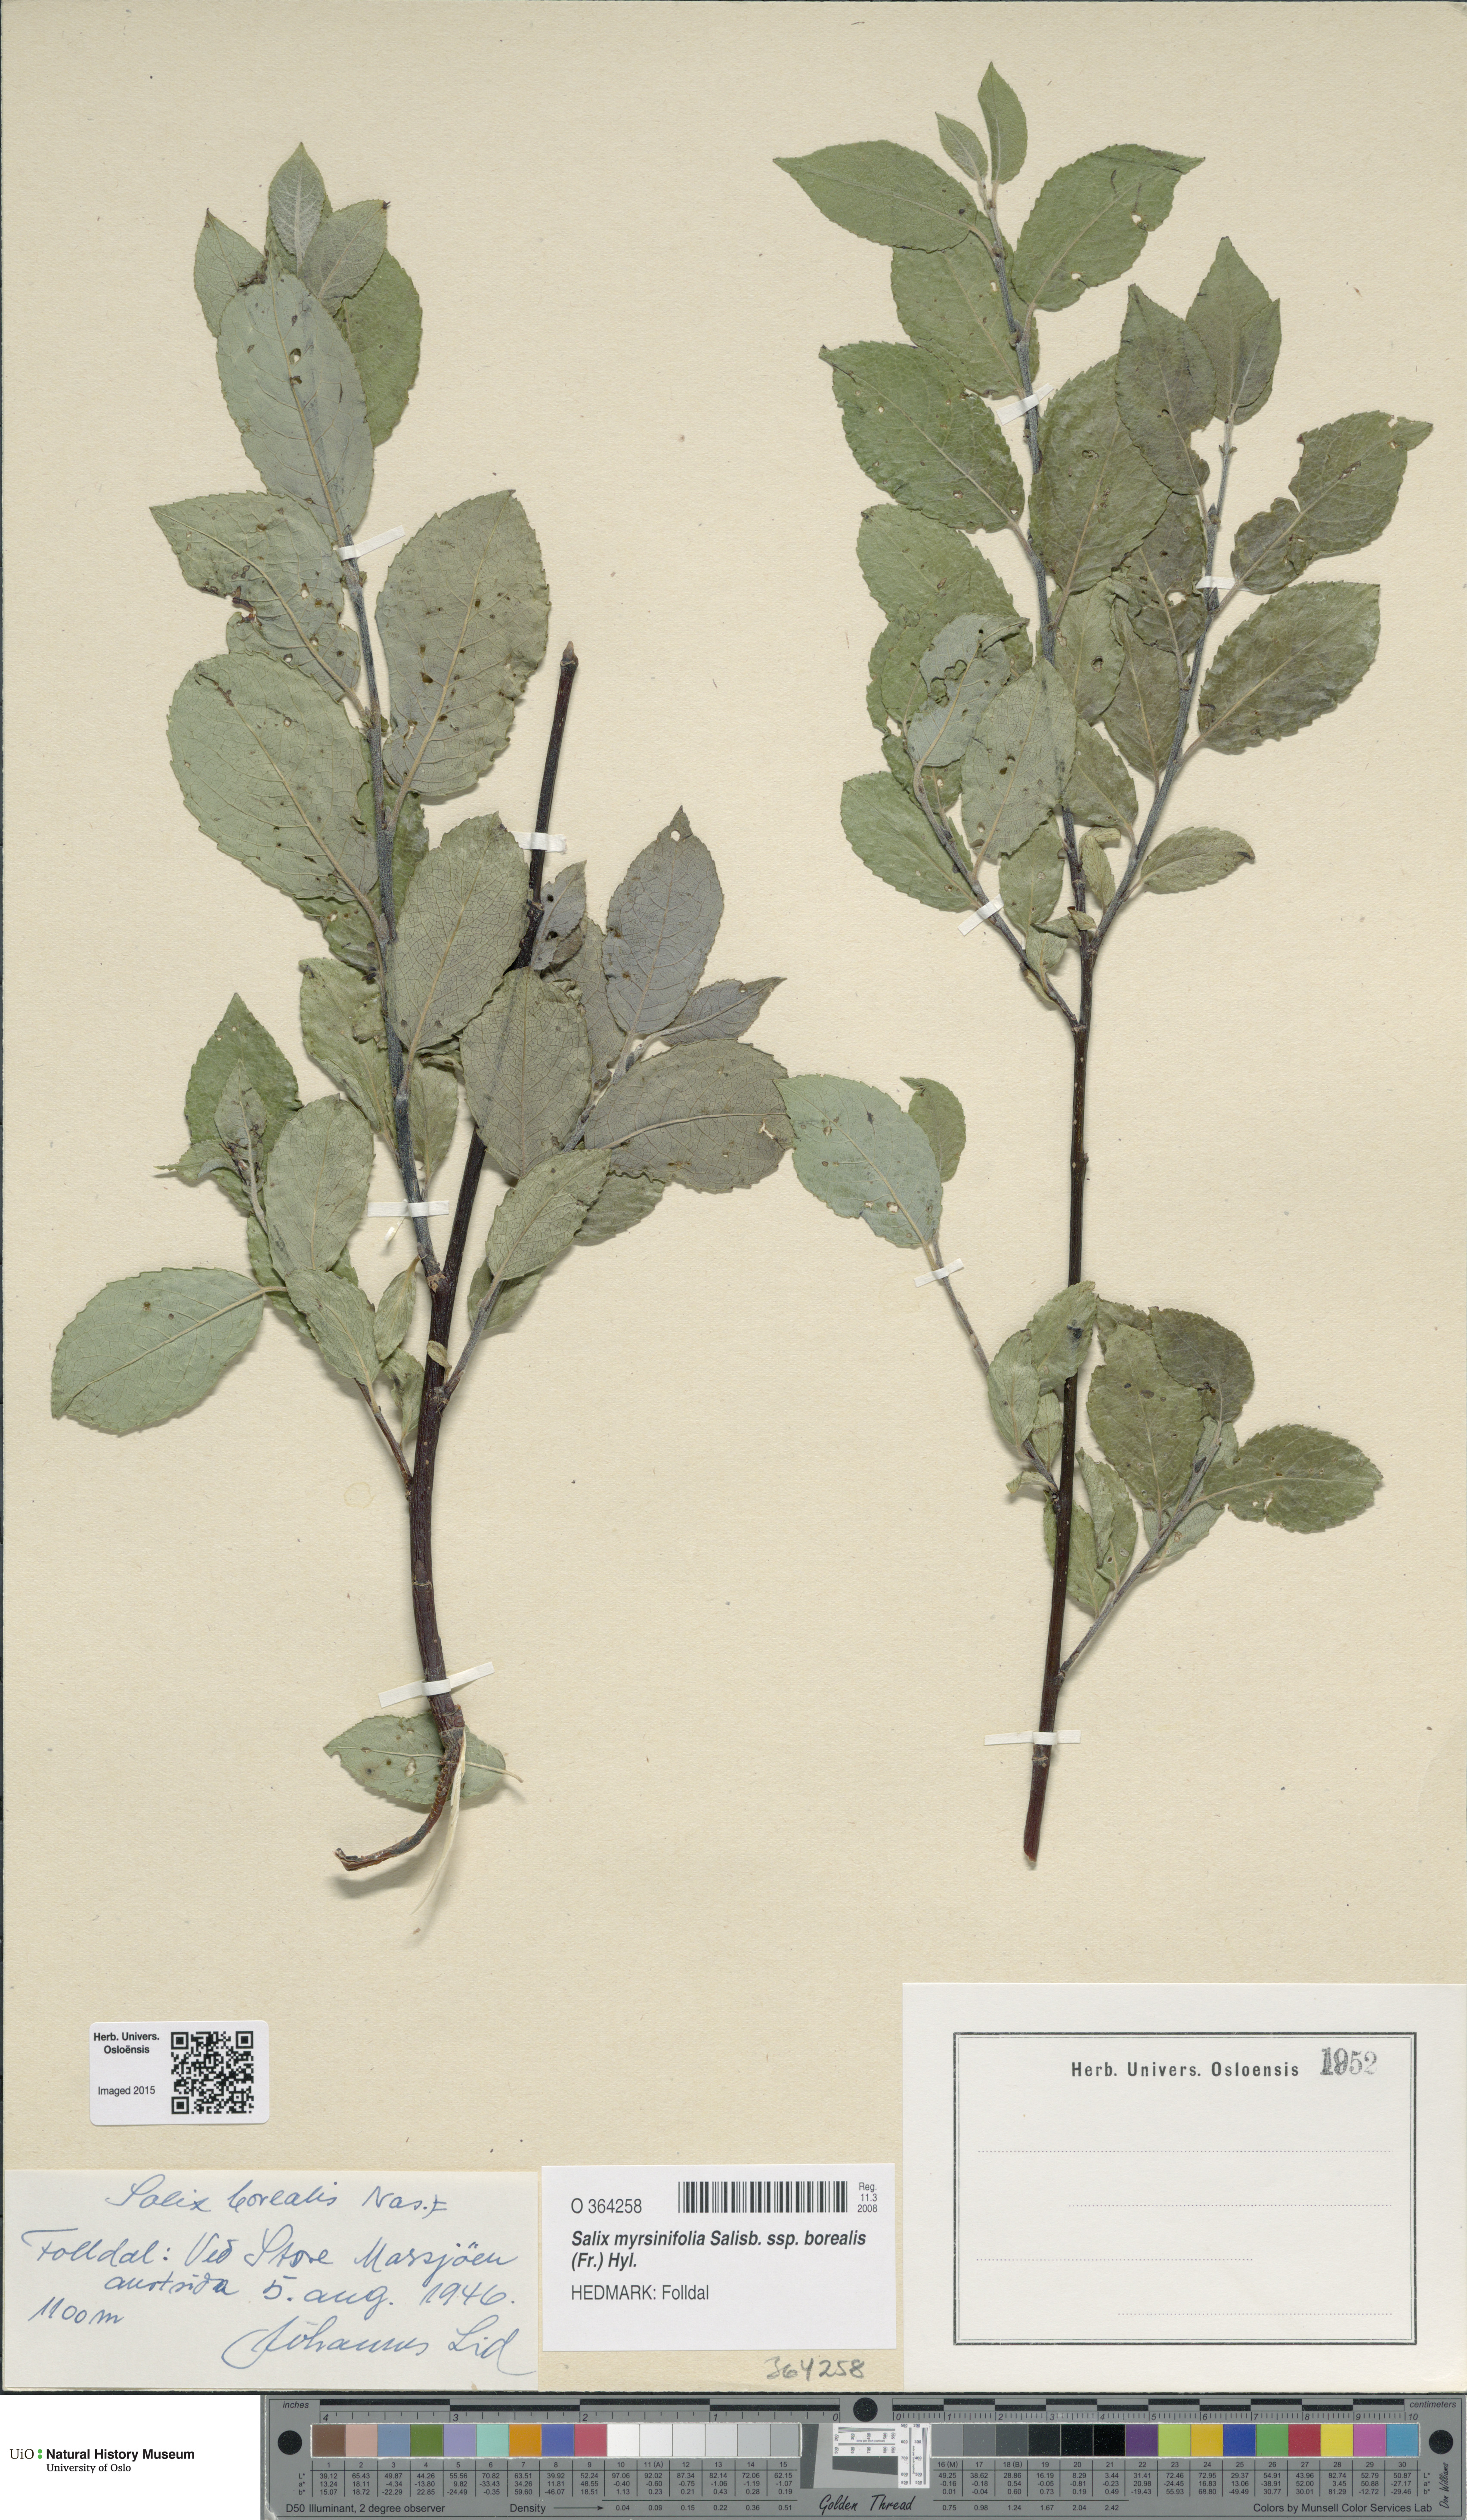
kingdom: Plantae
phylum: Tracheophyta
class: Magnoliopsida
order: Malpighiales
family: Salicaceae
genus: Salix
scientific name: Salix myrsinifolia
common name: Dark-leaved willow
